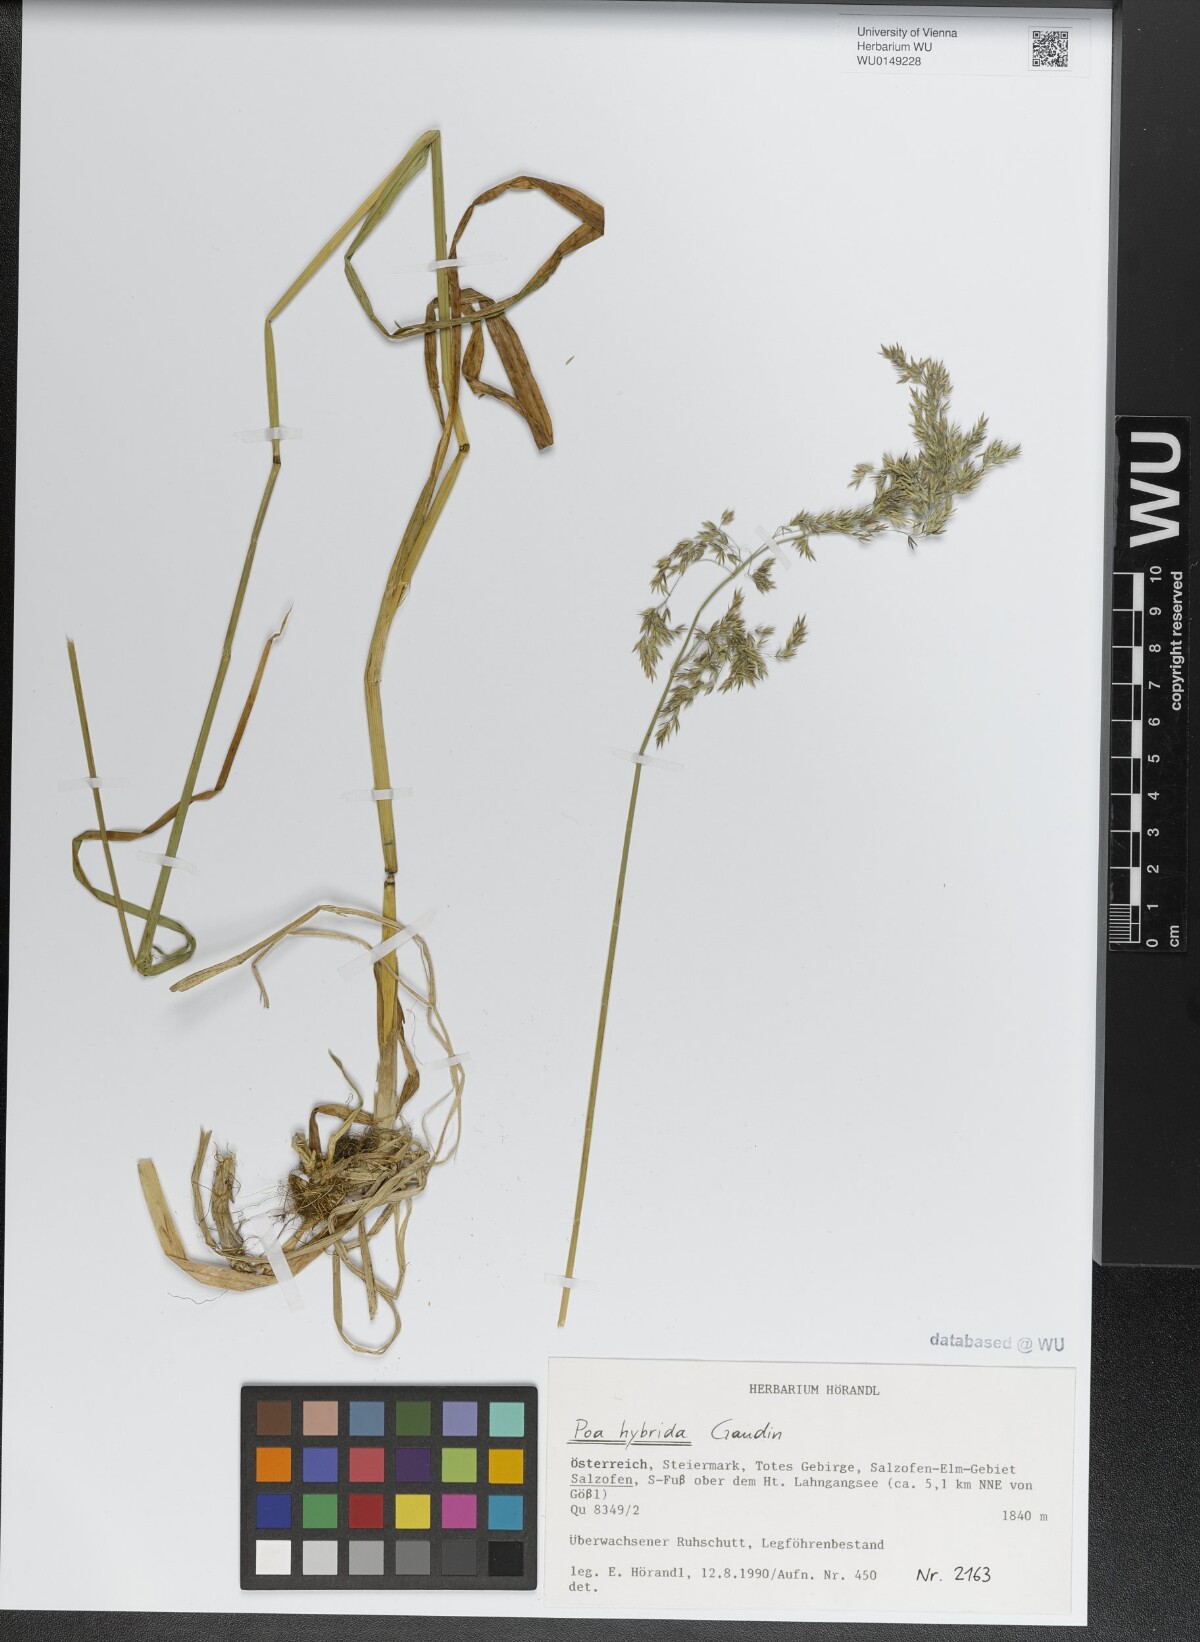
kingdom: Plantae
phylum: Tracheophyta
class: Liliopsida
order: Poales
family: Poaceae
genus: Poa
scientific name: Poa hybrida
